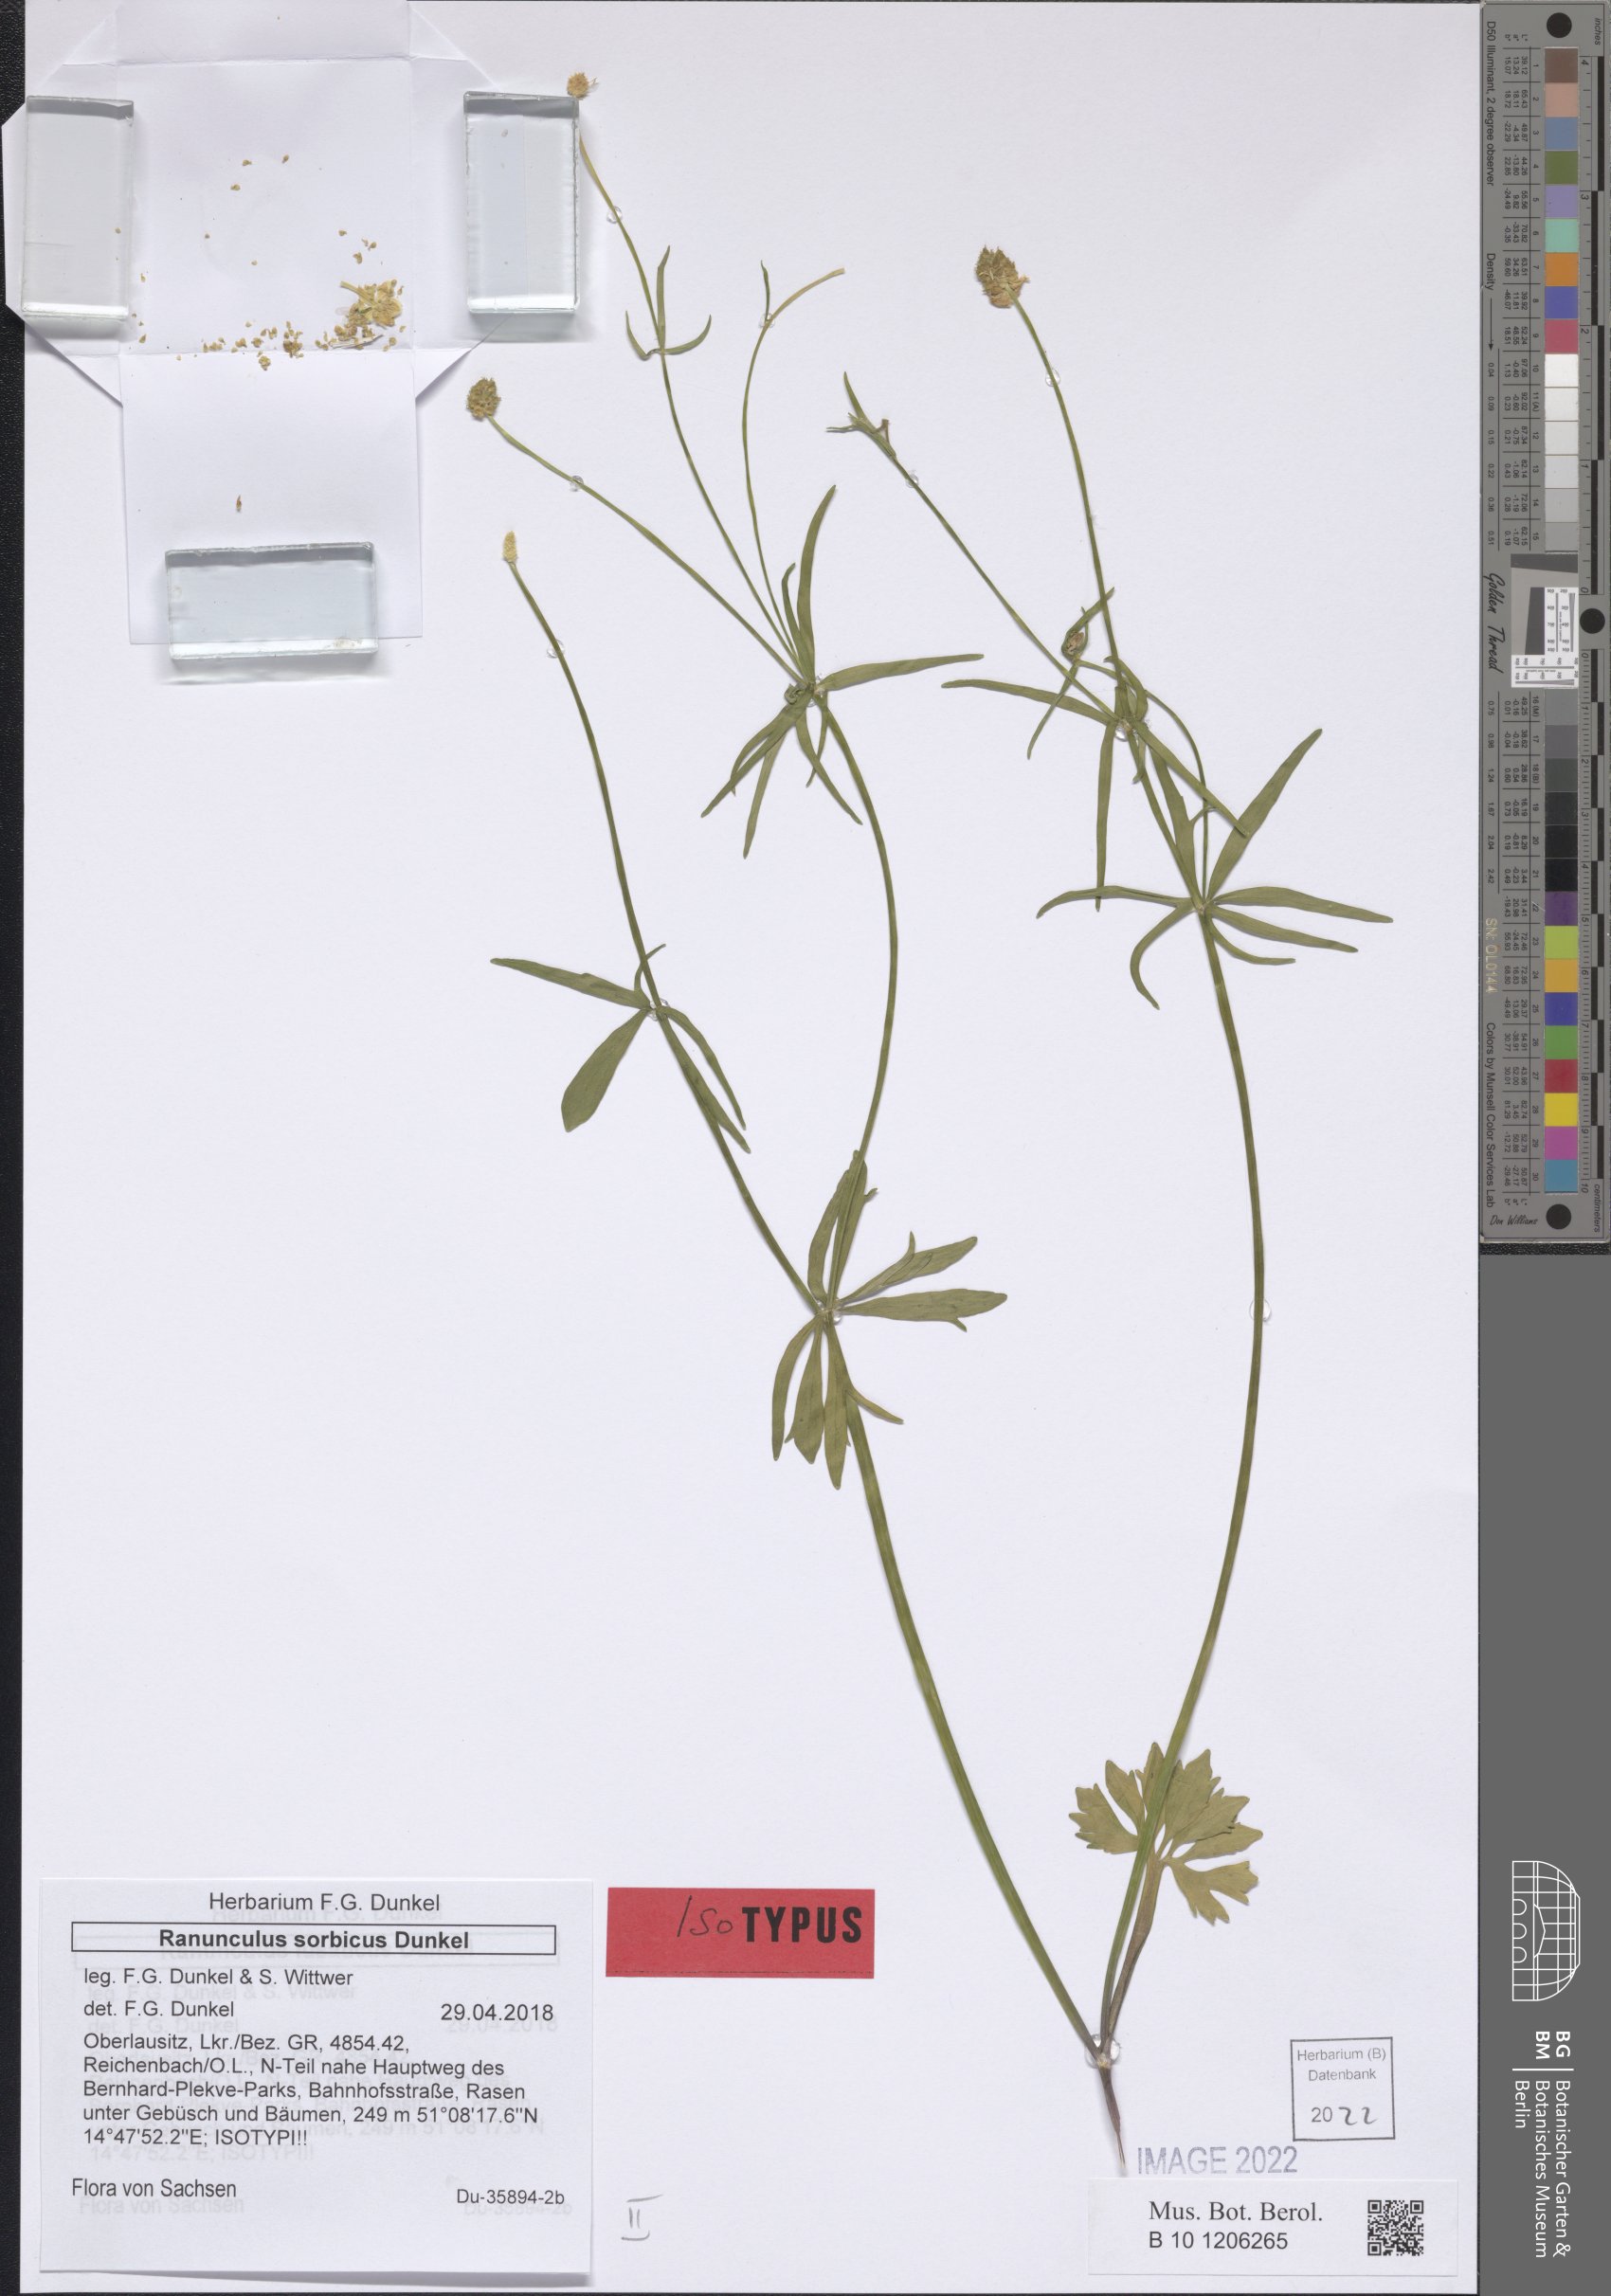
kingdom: Plantae
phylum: Tracheophyta
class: Magnoliopsida
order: Ranunculales
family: Ranunculaceae
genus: Ranunculus
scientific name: Ranunculus sorbicus
